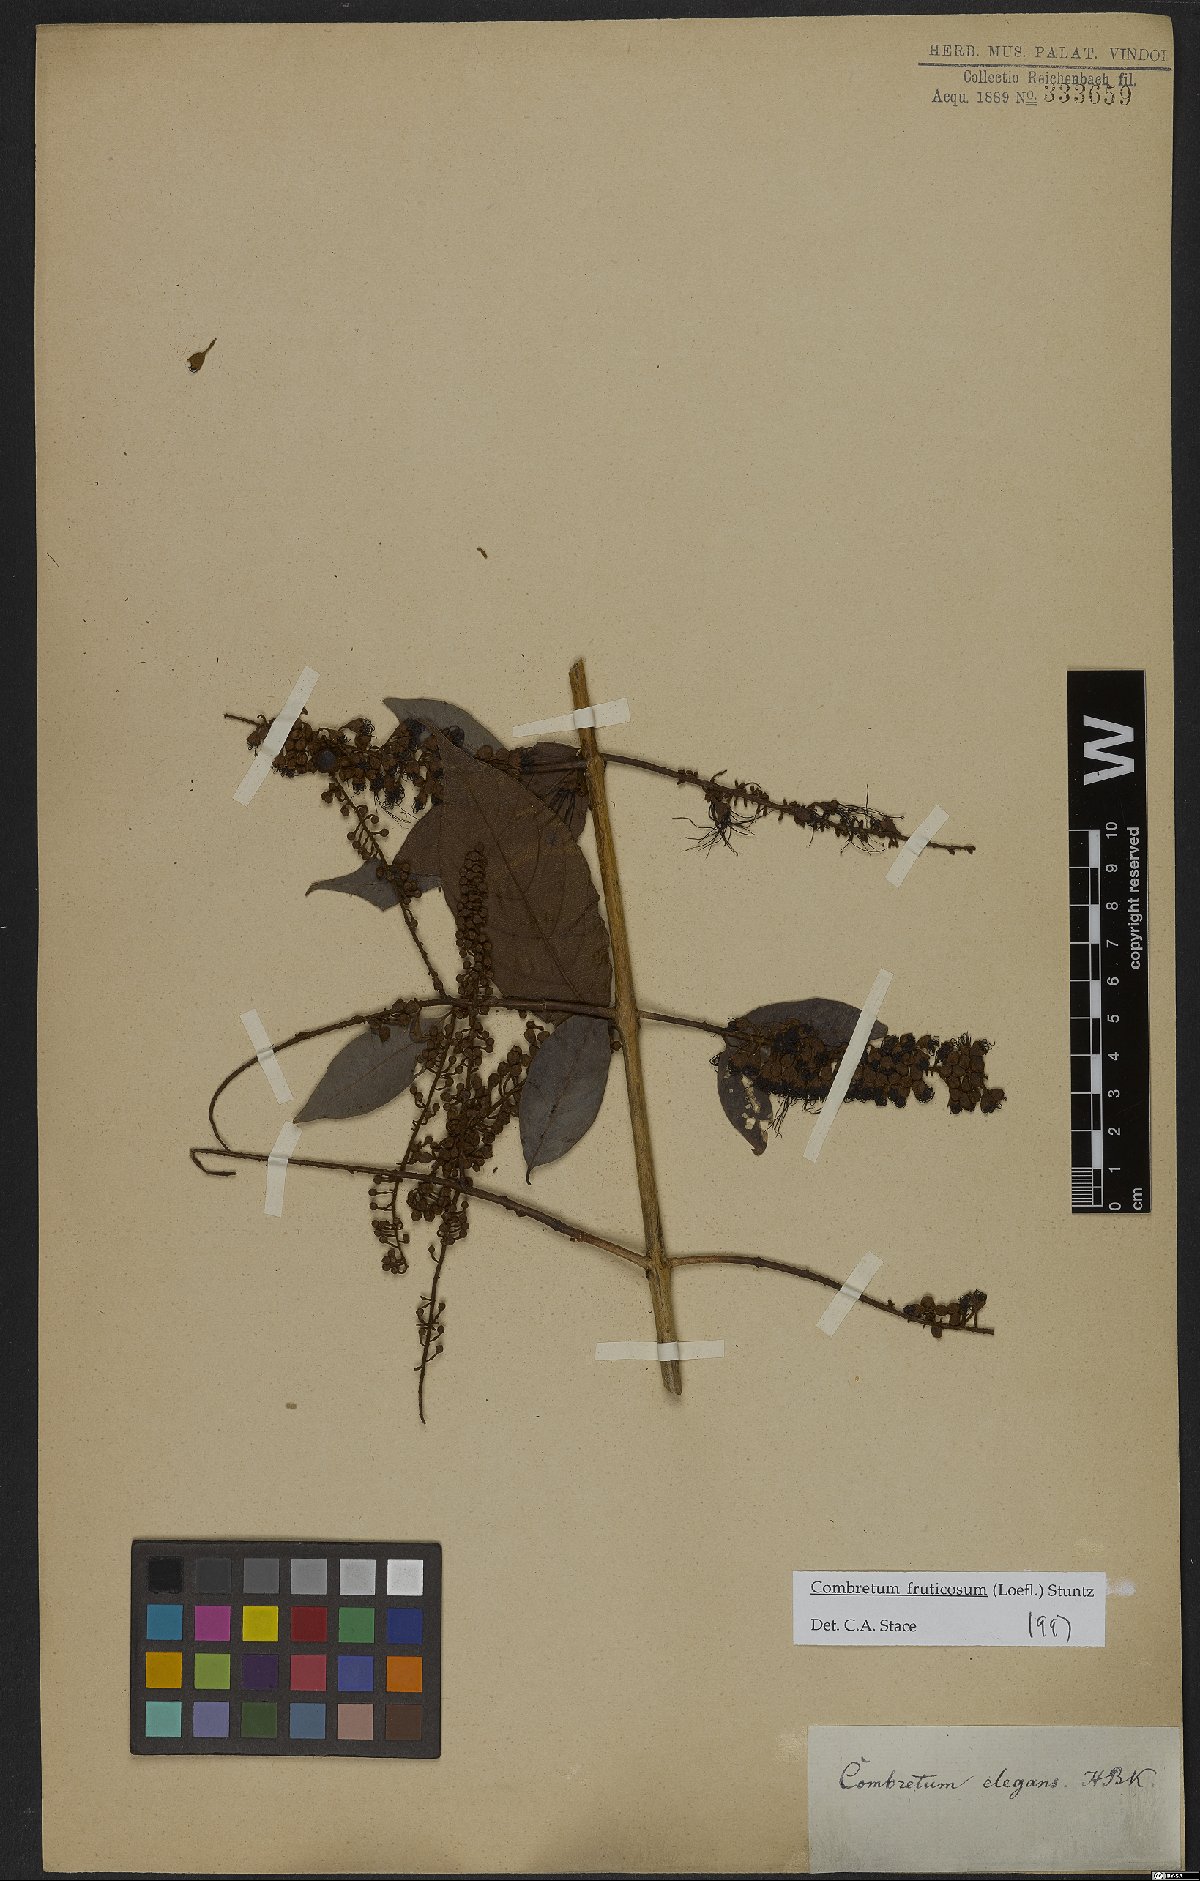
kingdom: Plantae
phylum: Tracheophyta
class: Magnoliopsida
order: Myrtales
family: Combretaceae
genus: Combretum
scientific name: Combretum fruticosum
